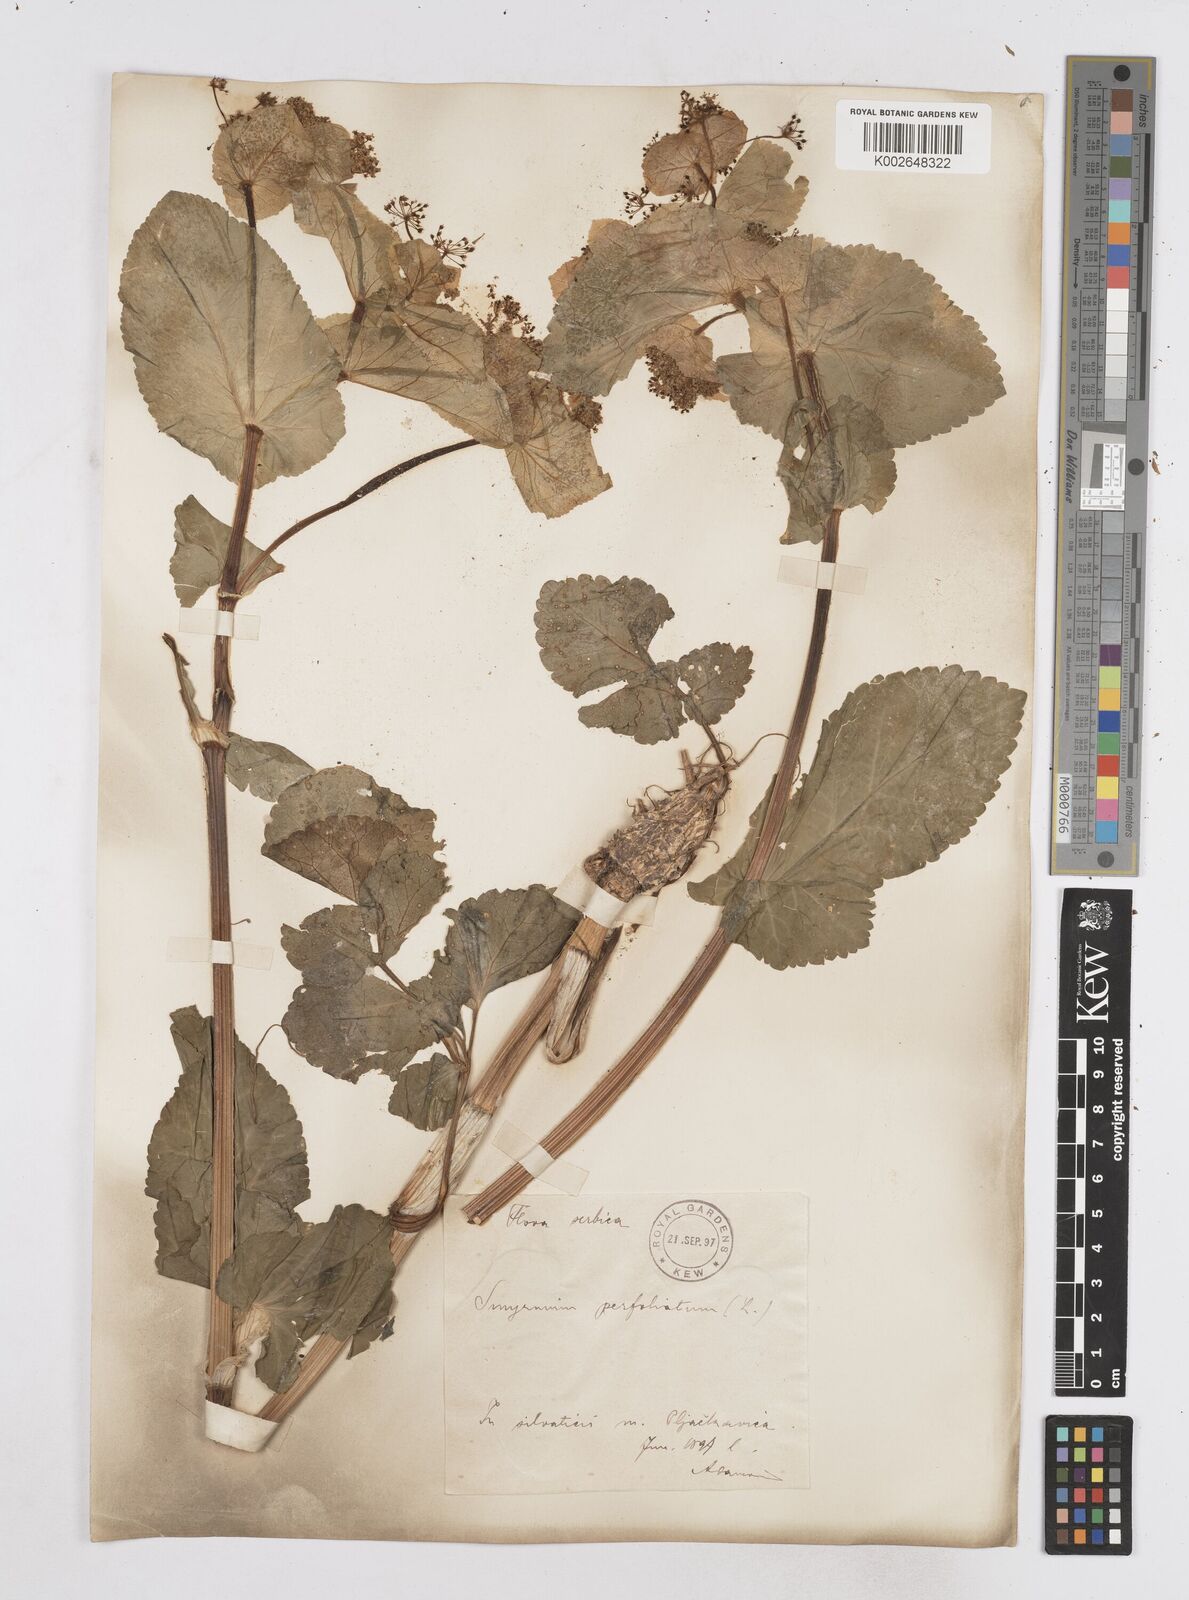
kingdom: Plantae
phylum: Tracheophyta
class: Magnoliopsida
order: Apiales
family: Apiaceae
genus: Smyrnium
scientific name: Smyrnium perfoliatum
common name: Perfoliate alexanders
